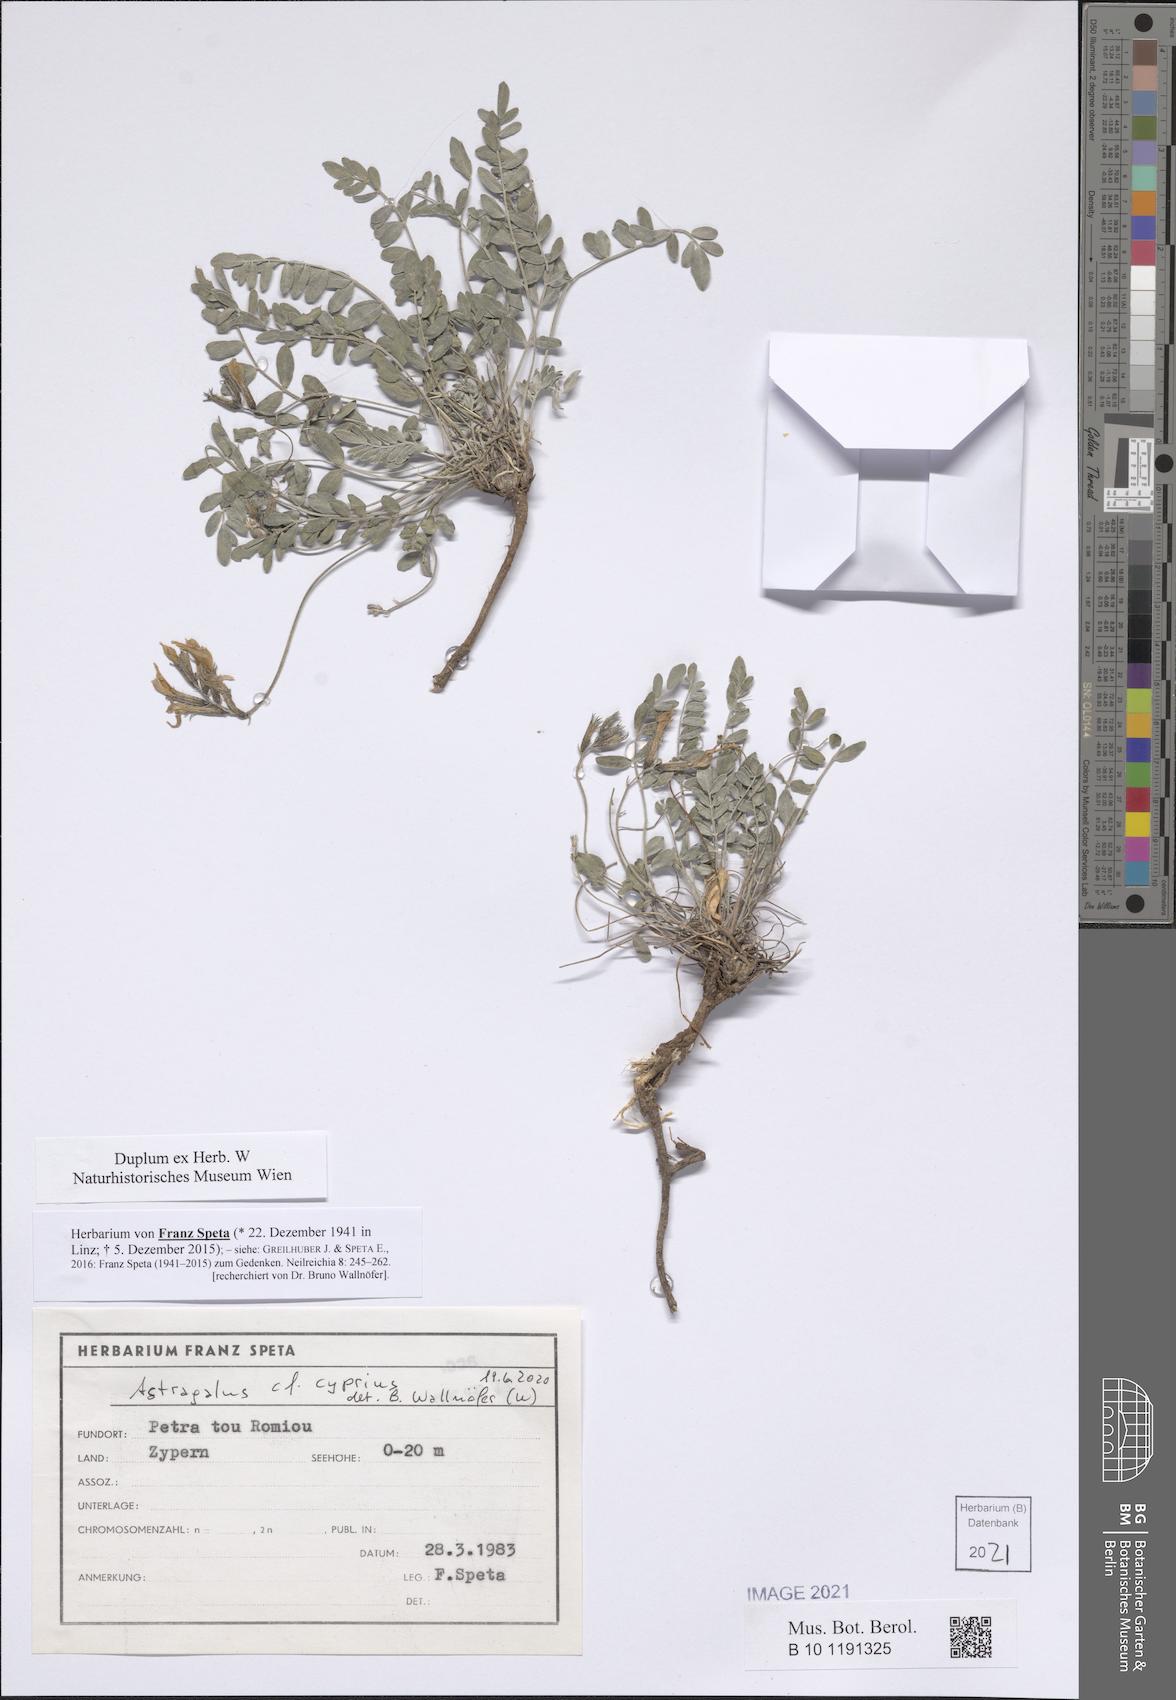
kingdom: Plantae
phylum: Tracheophyta
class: Magnoliopsida
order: Fabales
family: Fabaceae
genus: Astragalus
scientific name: Astragalus cyprius
